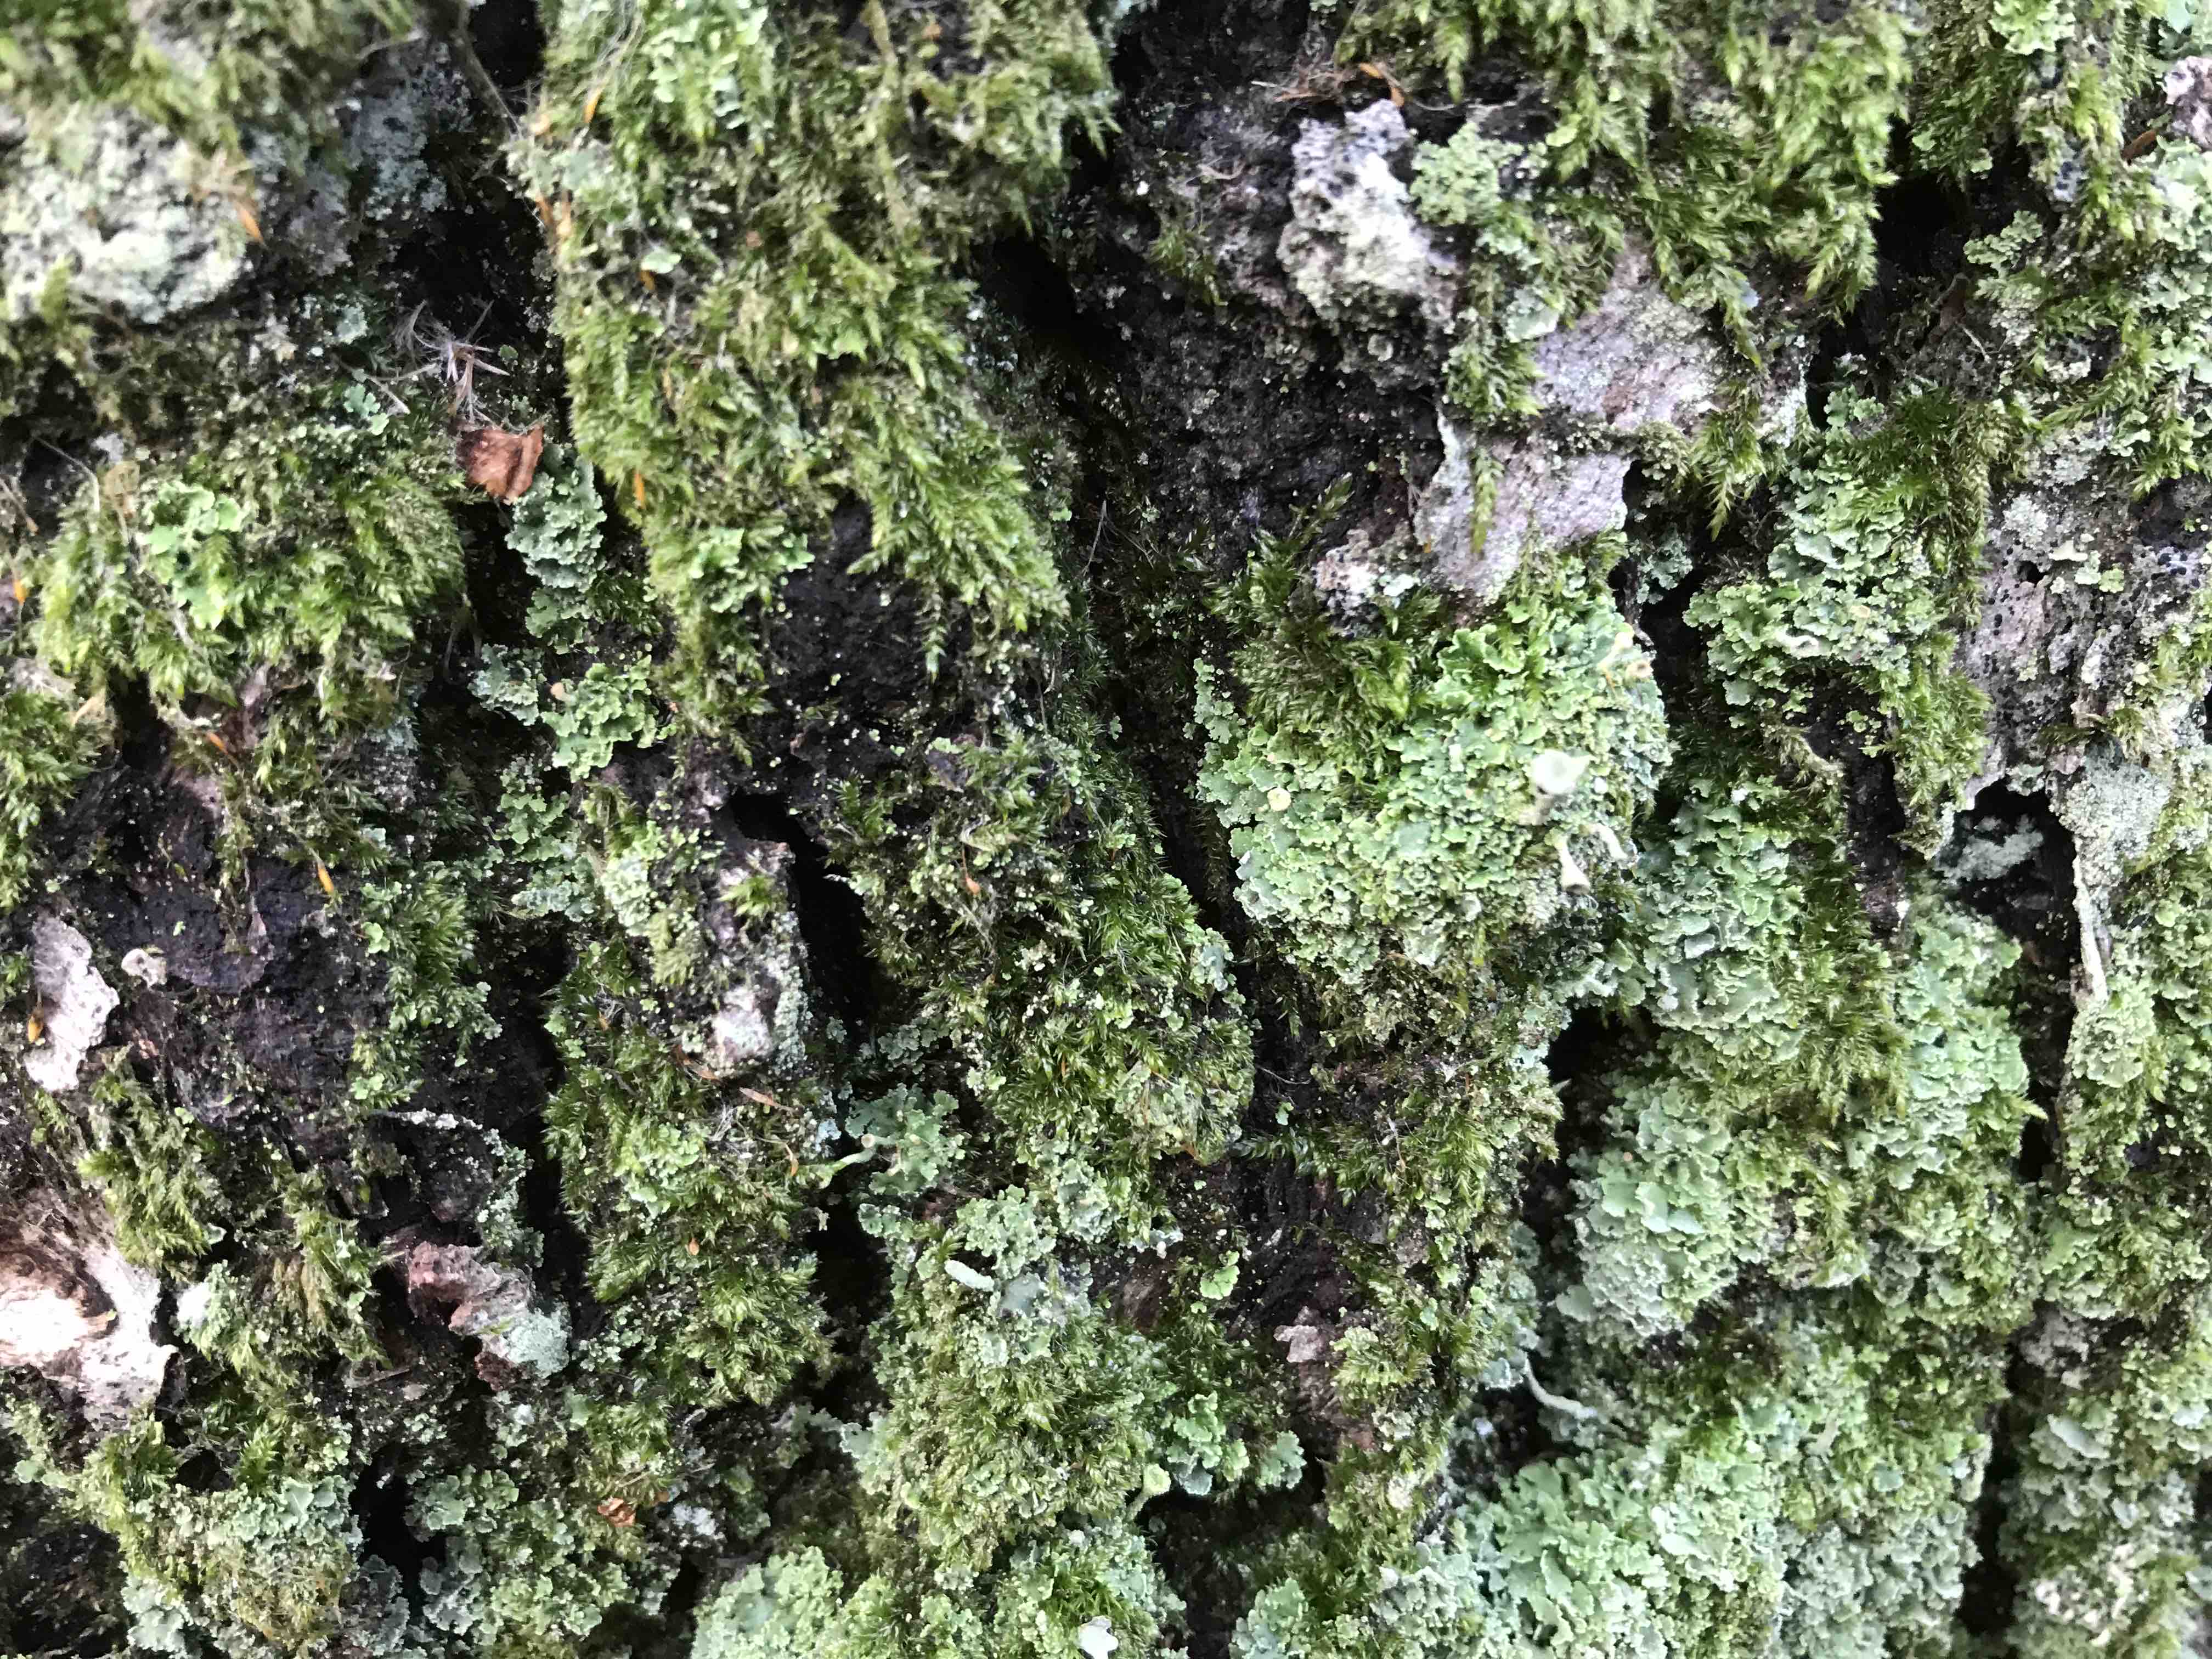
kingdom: Fungi
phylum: Ascomycota
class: Lecanoromycetes
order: Lecanorales
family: Cladoniaceae
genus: Cladonia
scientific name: Cladonia
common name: brungrøn bægerlav
